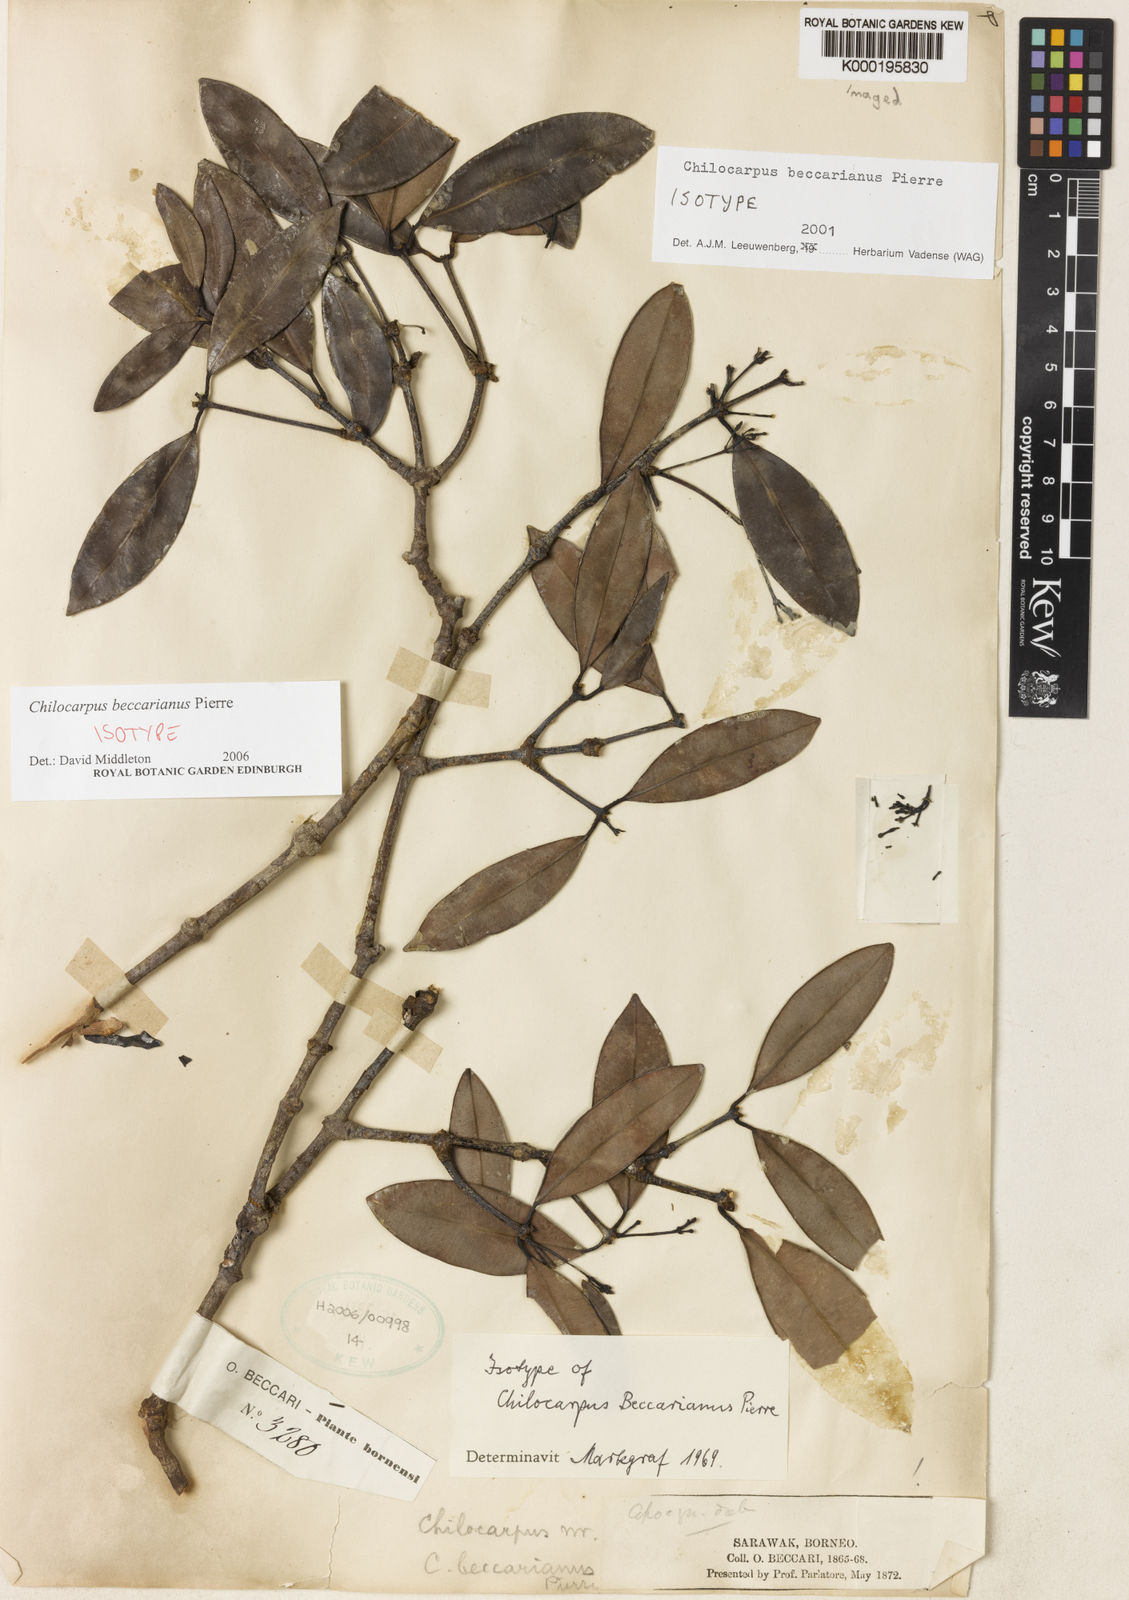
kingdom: Plantae
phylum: Tracheophyta
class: Magnoliopsida
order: Gentianales
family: Apocynaceae
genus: Chilocarpus
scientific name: Chilocarpus beccarianus
